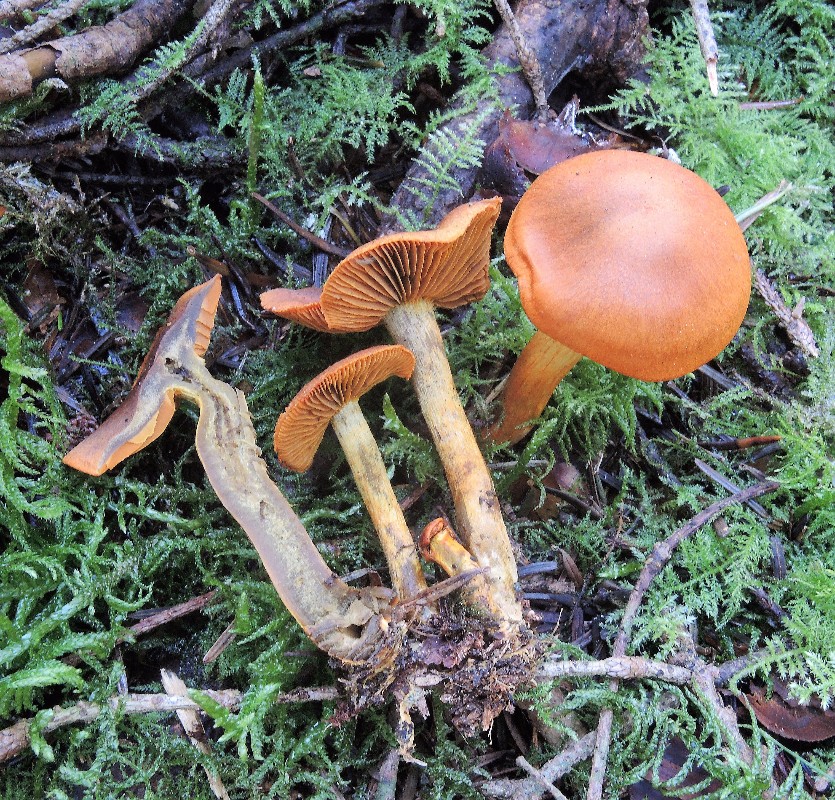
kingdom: Fungi
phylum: Basidiomycota
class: Agaricomycetes
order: Agaricales
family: Cortinariaceae
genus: Cortinarius
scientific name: Cortinarius malicorius
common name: grønkødet slørhat
